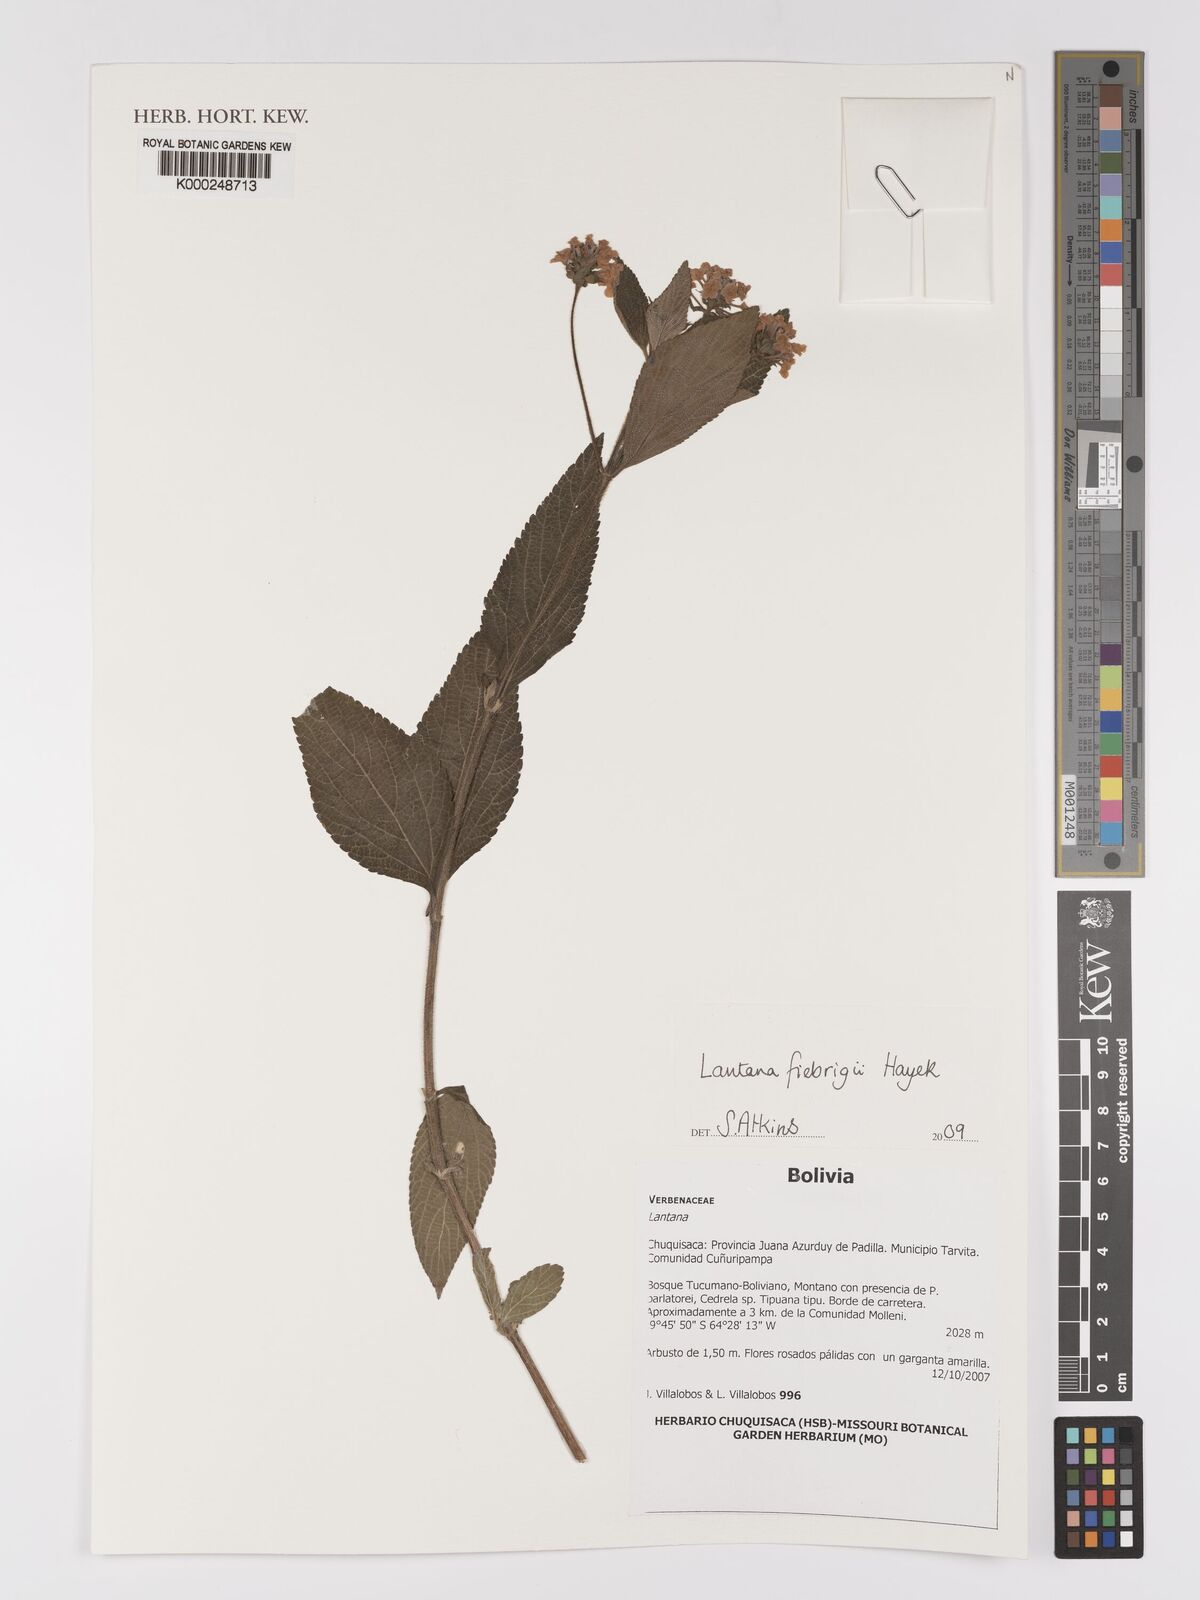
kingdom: Plantae
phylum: Tracheophyta
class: Magnoliopsida
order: Lamiales
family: Verbenaceae
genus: Lantana
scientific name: Lantana trifolia
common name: Sweet-sage
